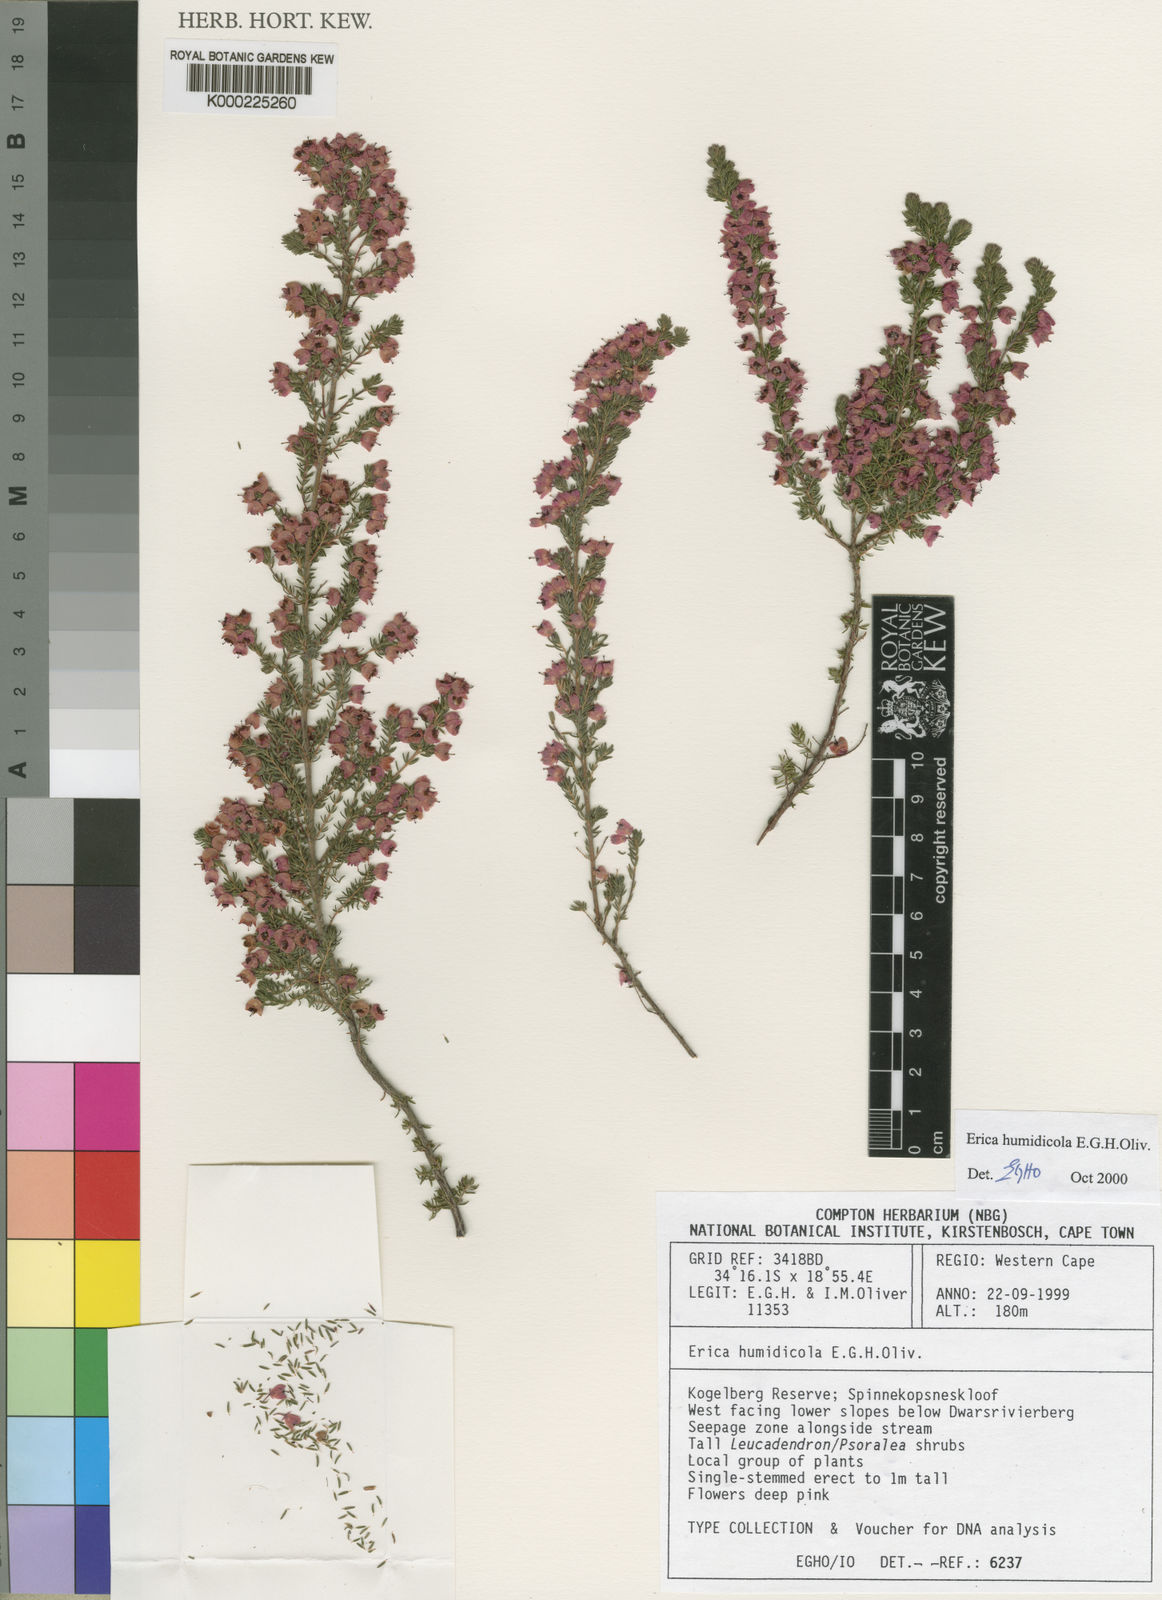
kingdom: Plantae
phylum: Tracheophyta
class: Magnoliopsida
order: Ericales
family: Ericaceae
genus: Erica
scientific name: Erica humidicola
